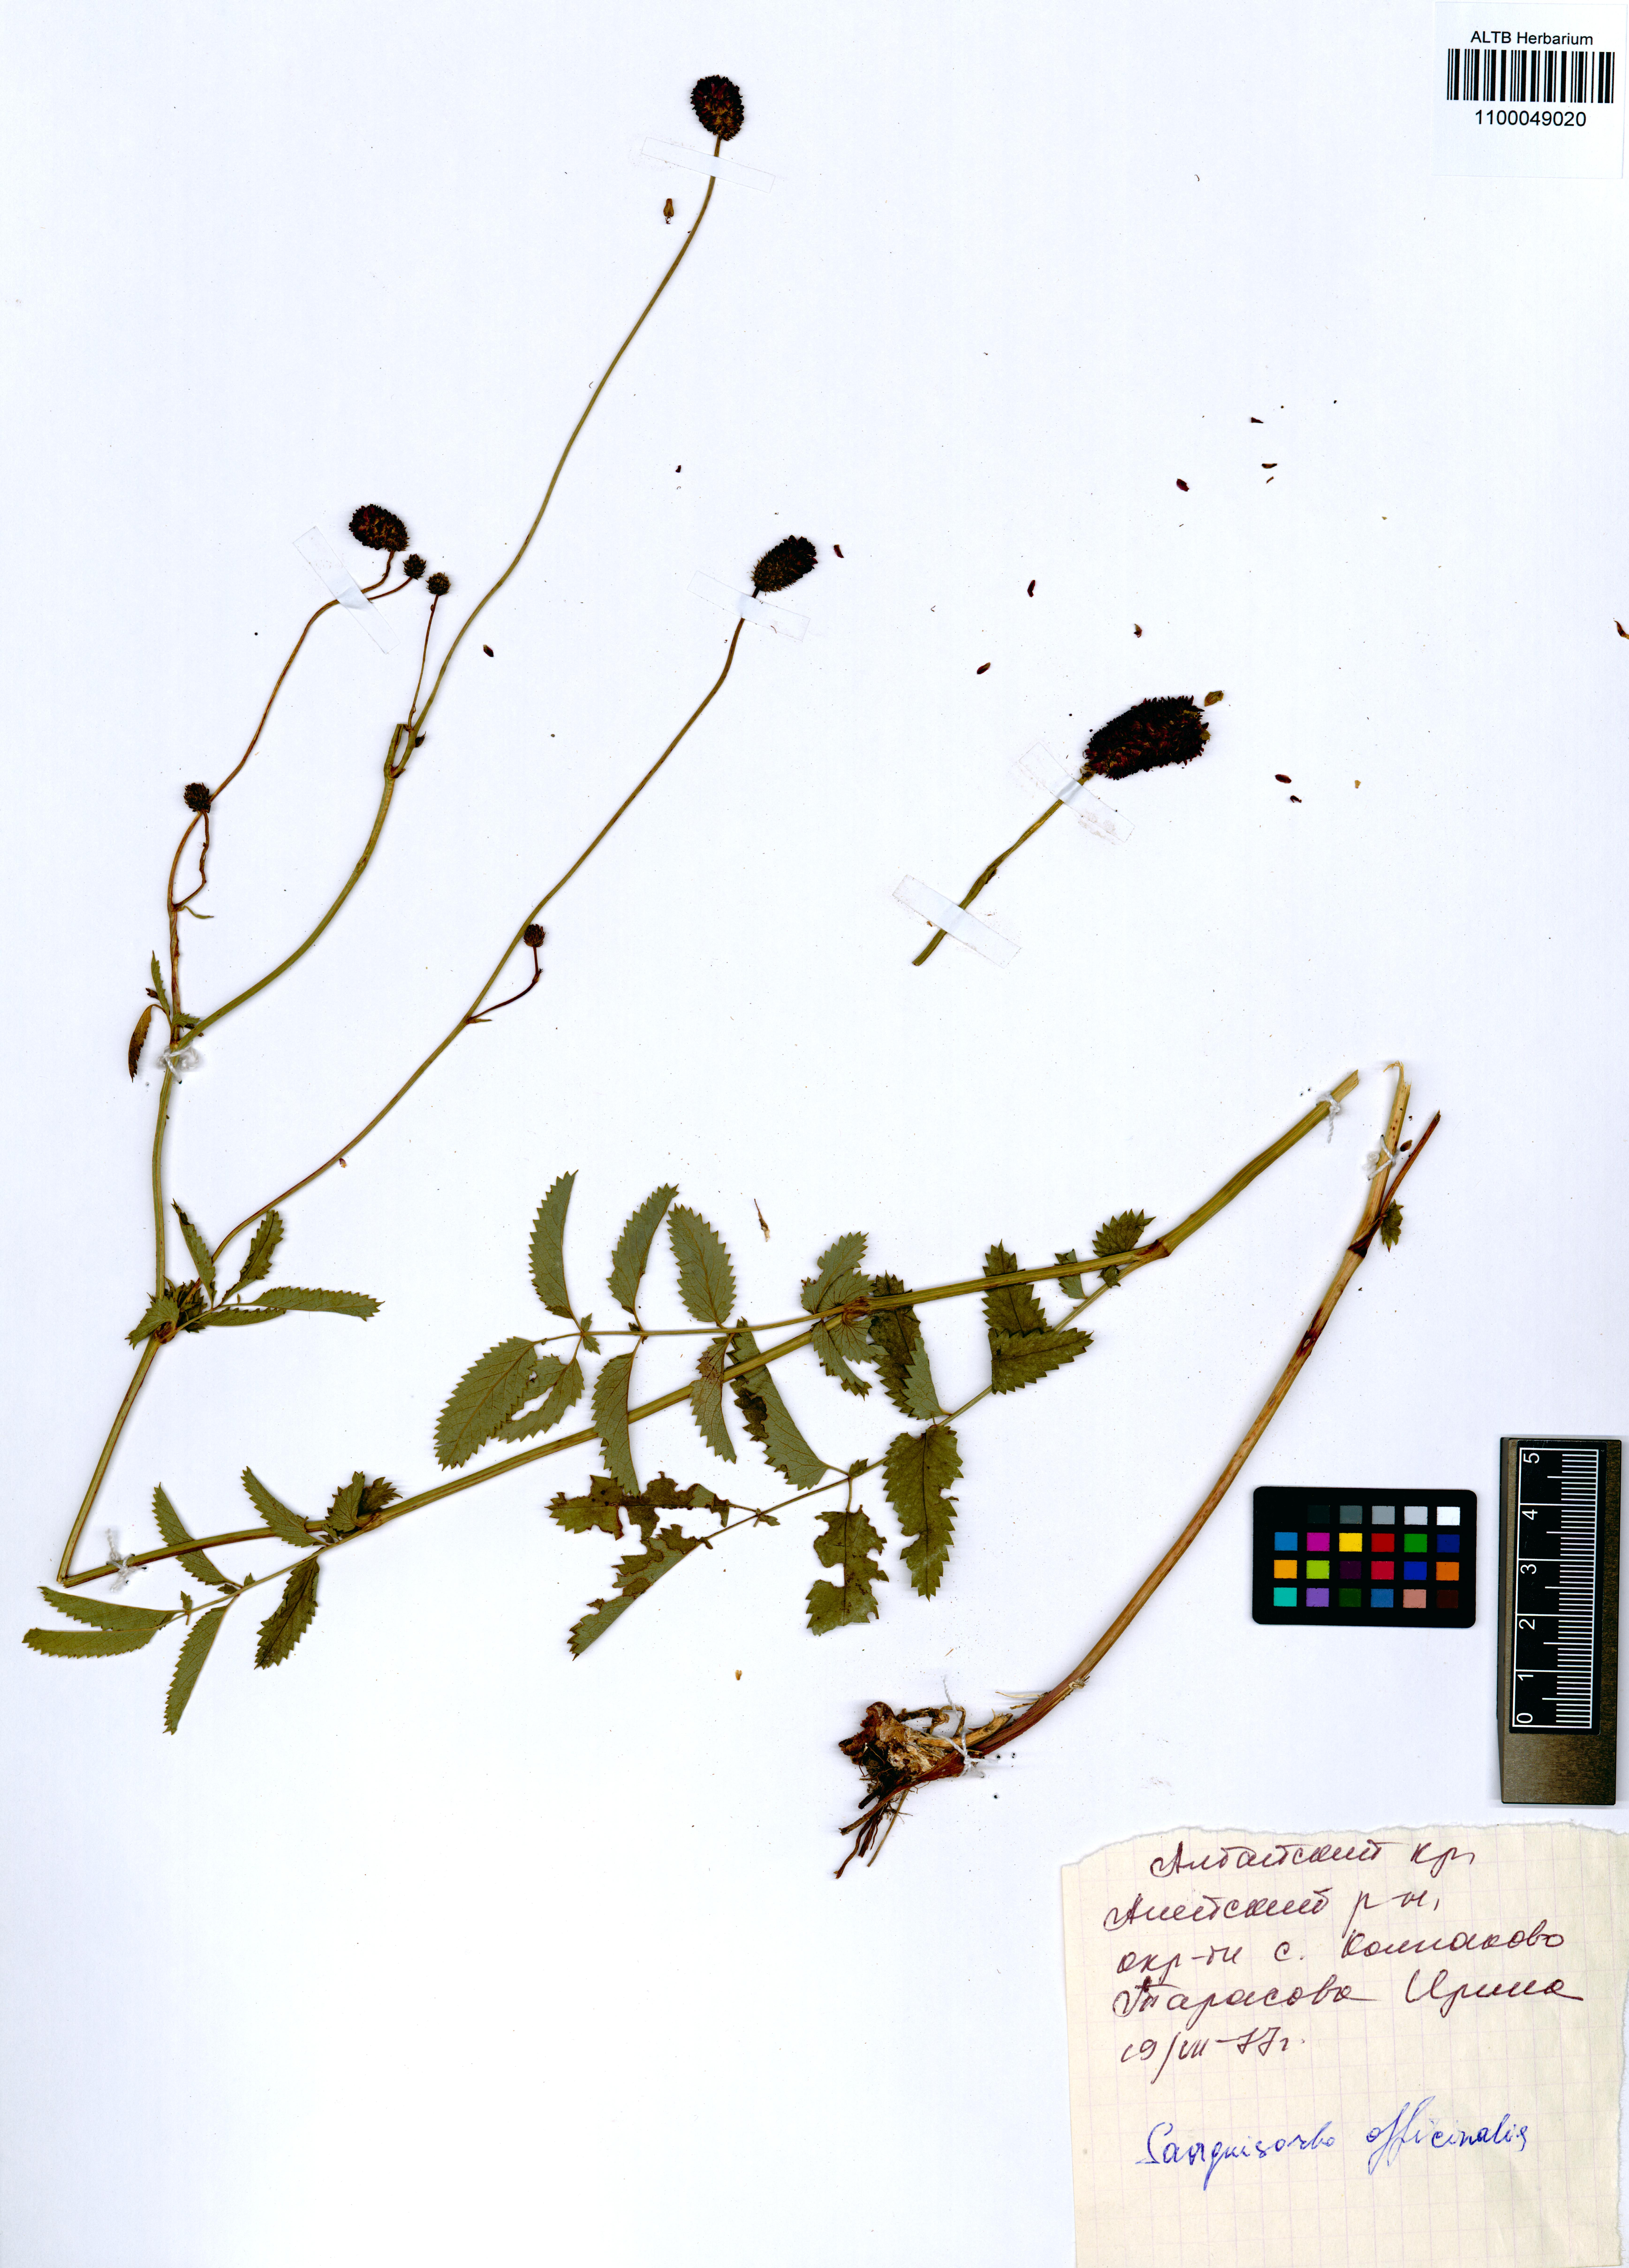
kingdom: Plantae
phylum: Tracheophyta
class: Magnoliopsida
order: Rosales
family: Rosaceae
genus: Sanguisorba
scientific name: Sanguisorba officinalis
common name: Great burnet
